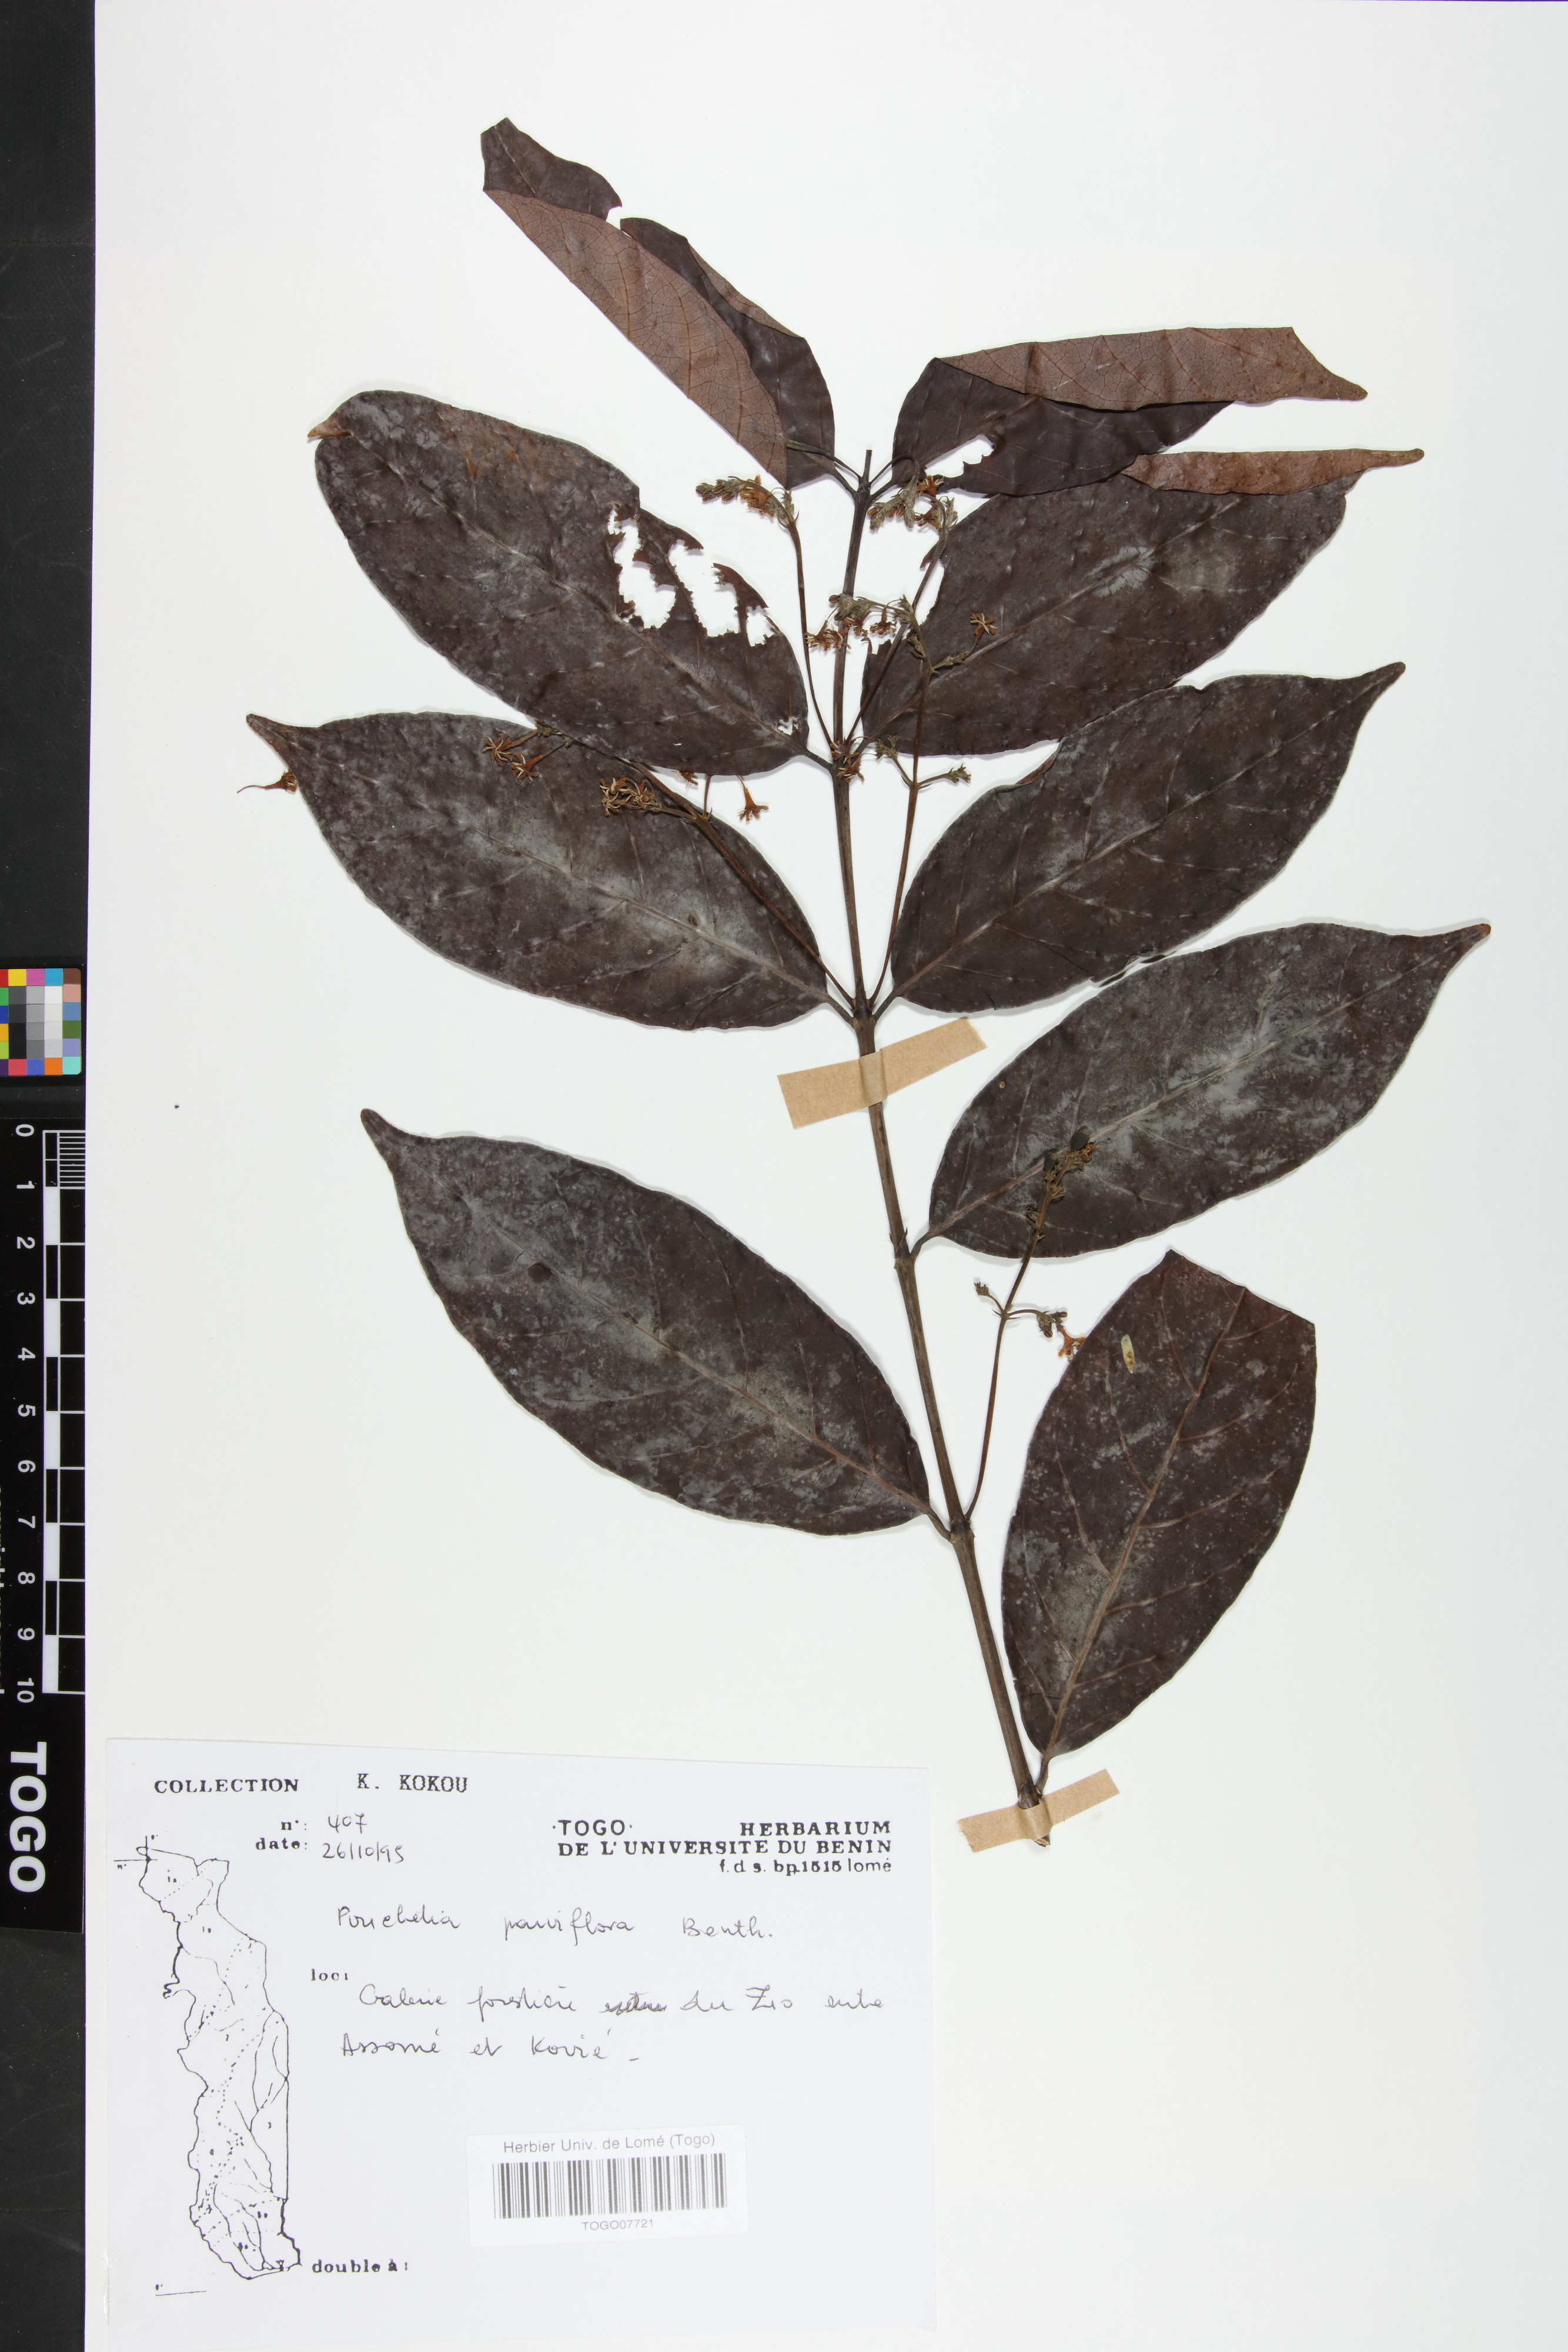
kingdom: Plantae
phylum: Tracheophyta
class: Magnoliopsida
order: Gentianales
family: Rubiaceae
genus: Pouchetia
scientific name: Pouchetia parviflora
